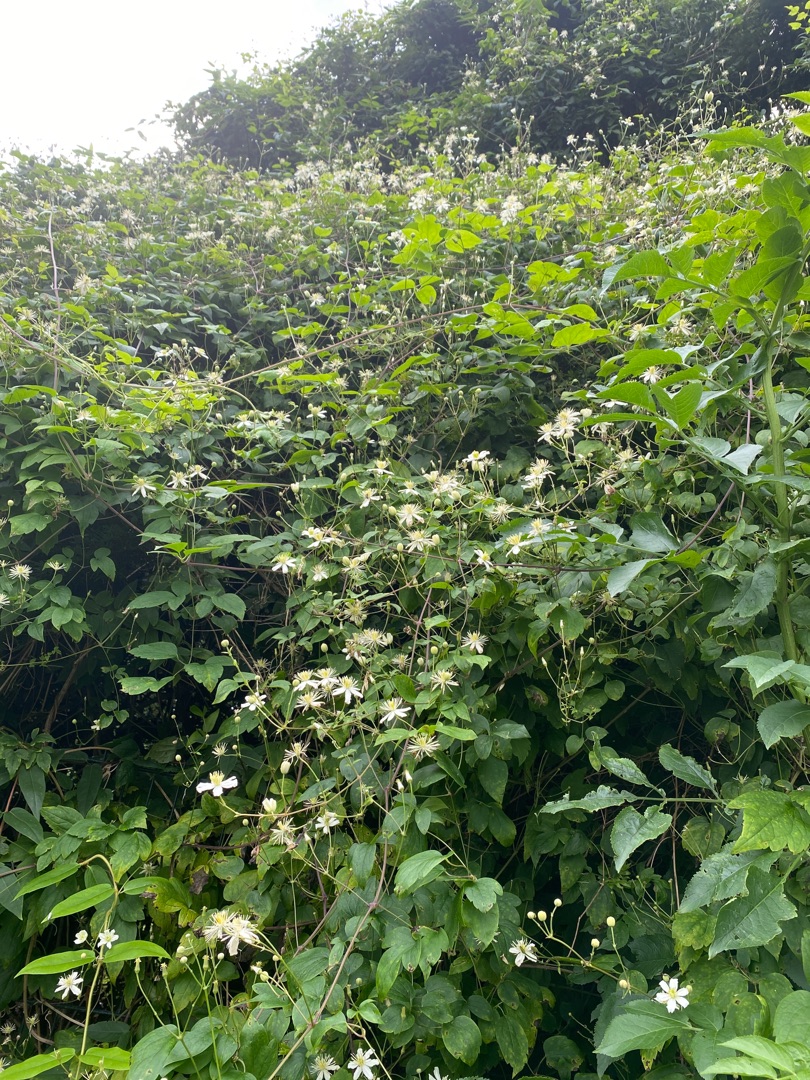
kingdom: Plantae
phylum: Tracheophyta
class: Magnoliopsida
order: Ranunculales
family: Ranunculaceae
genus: Clematis
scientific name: Clematis vitalba
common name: Skovranke
